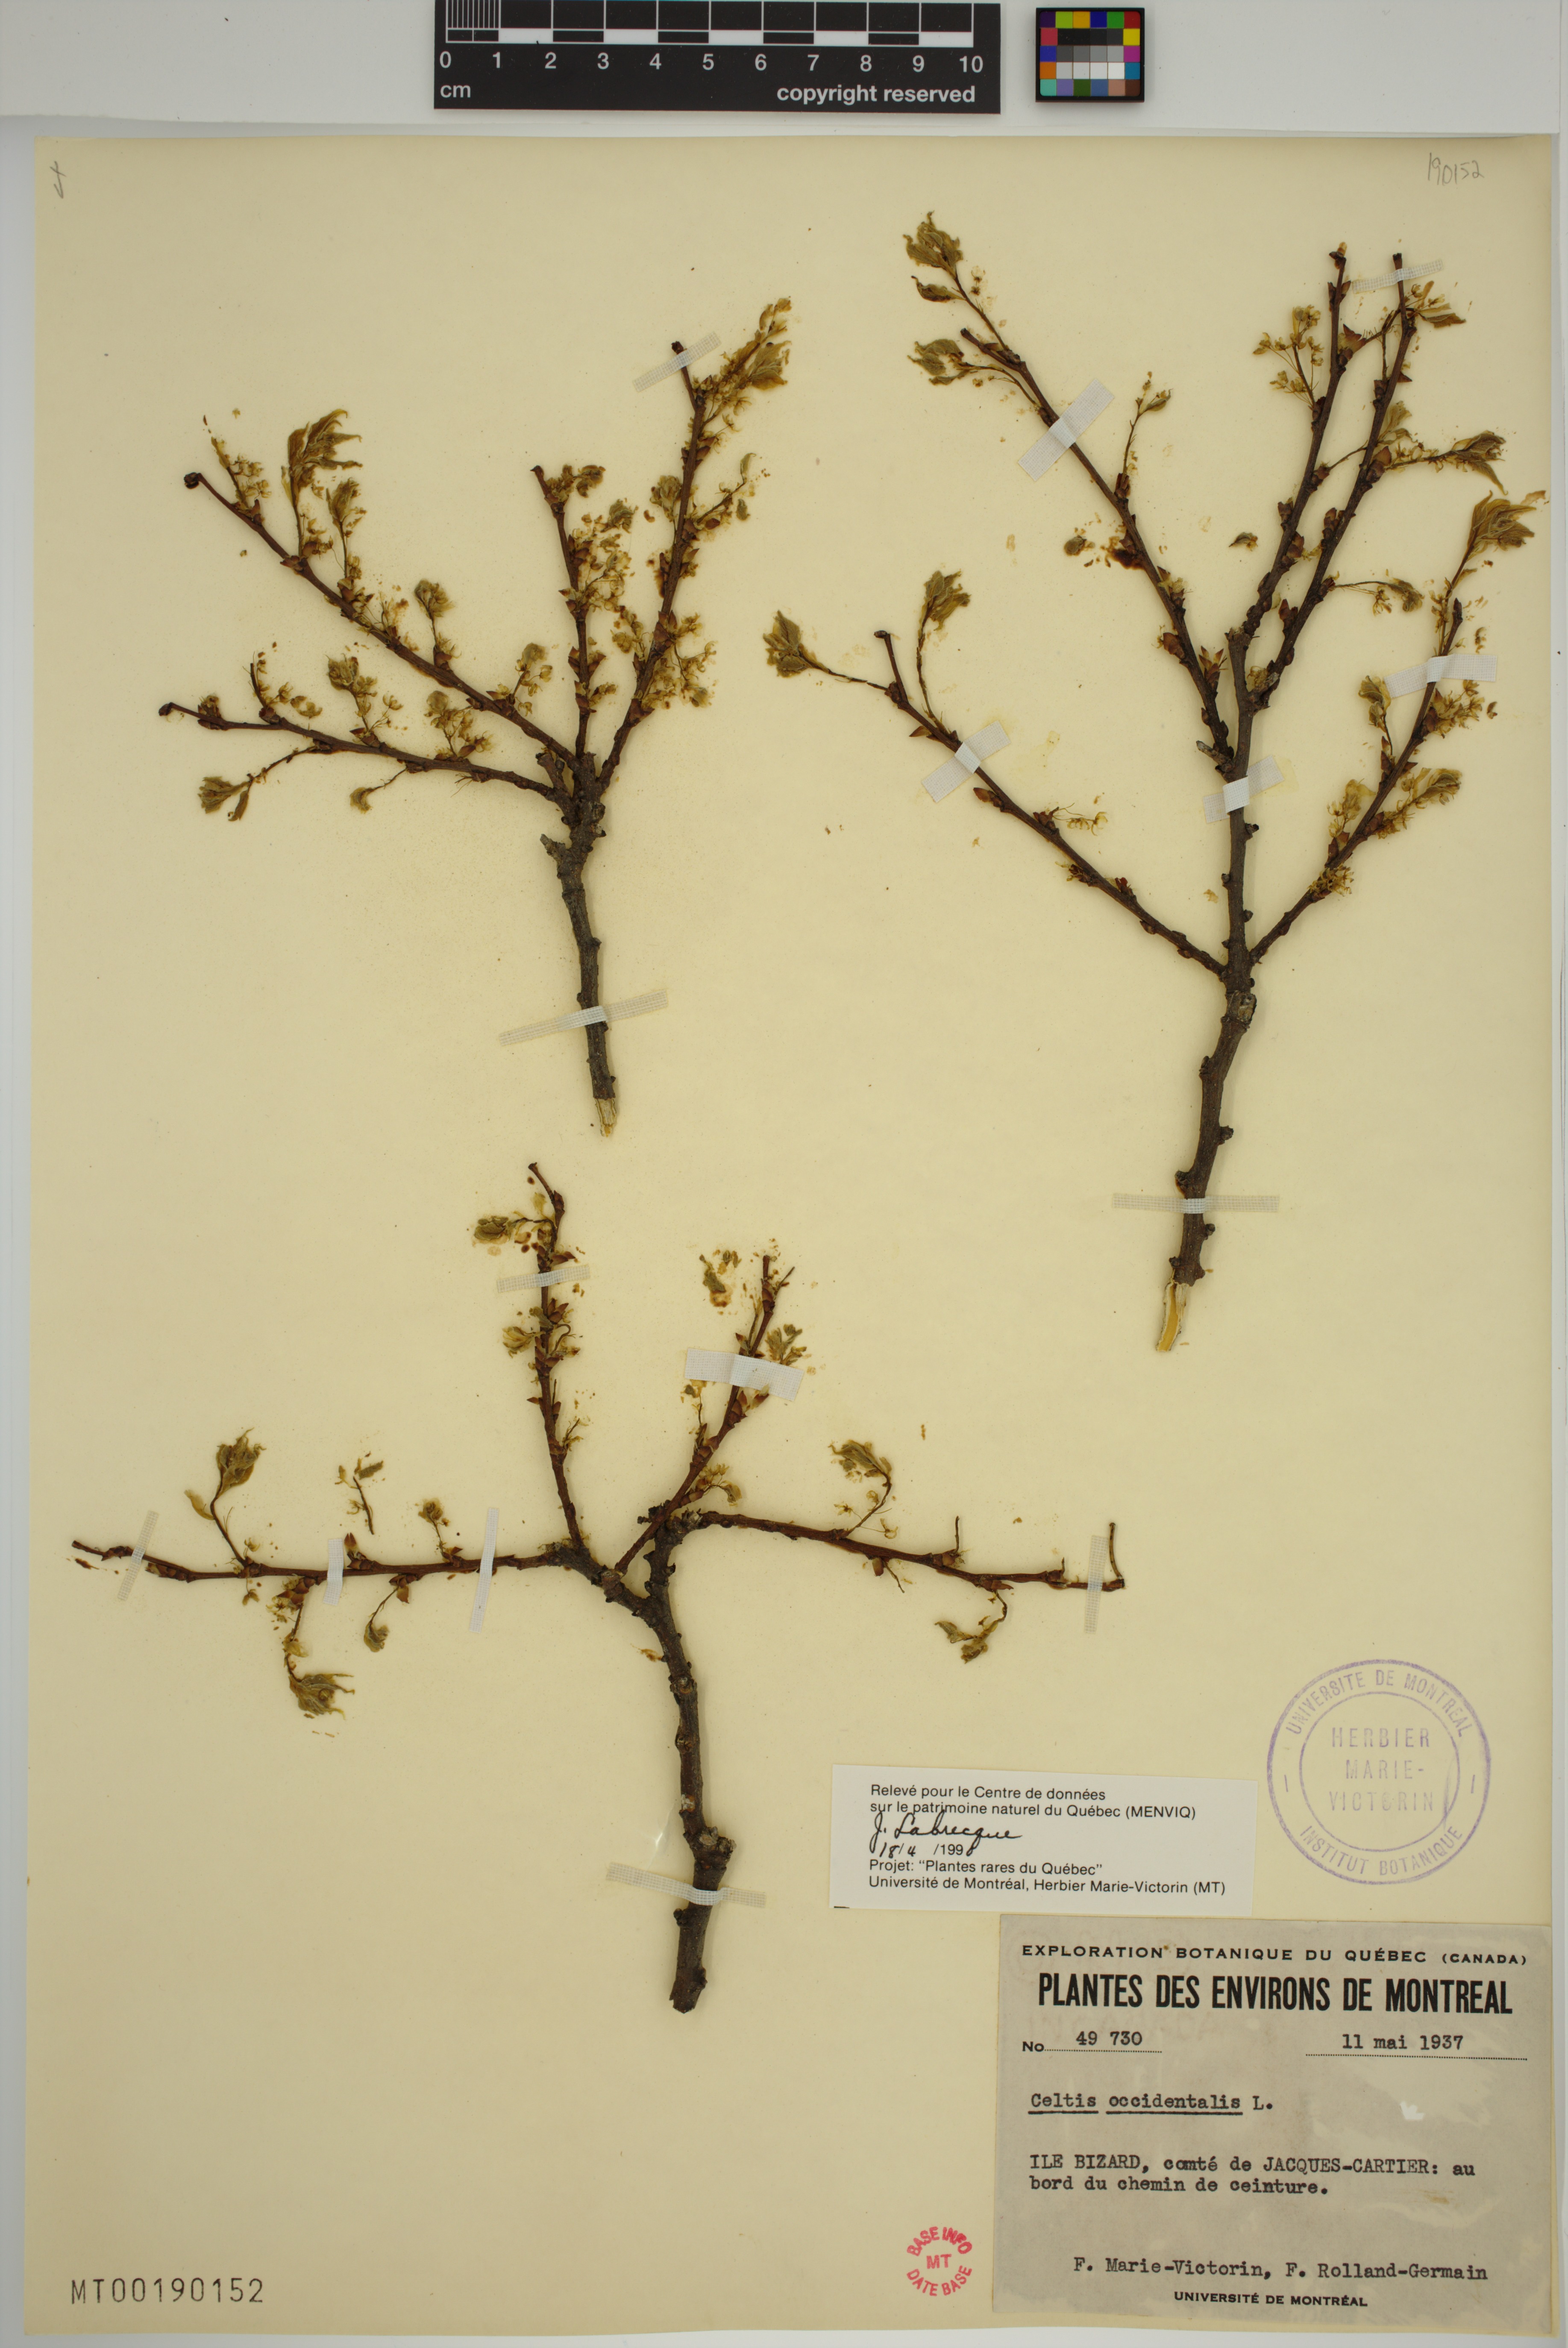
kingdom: Plantae
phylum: Tracheophyta
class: Magnoliopsida
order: Rosales
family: Cannabaceae
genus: Celtis
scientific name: Celtis occidentalis
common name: Common hackberry
